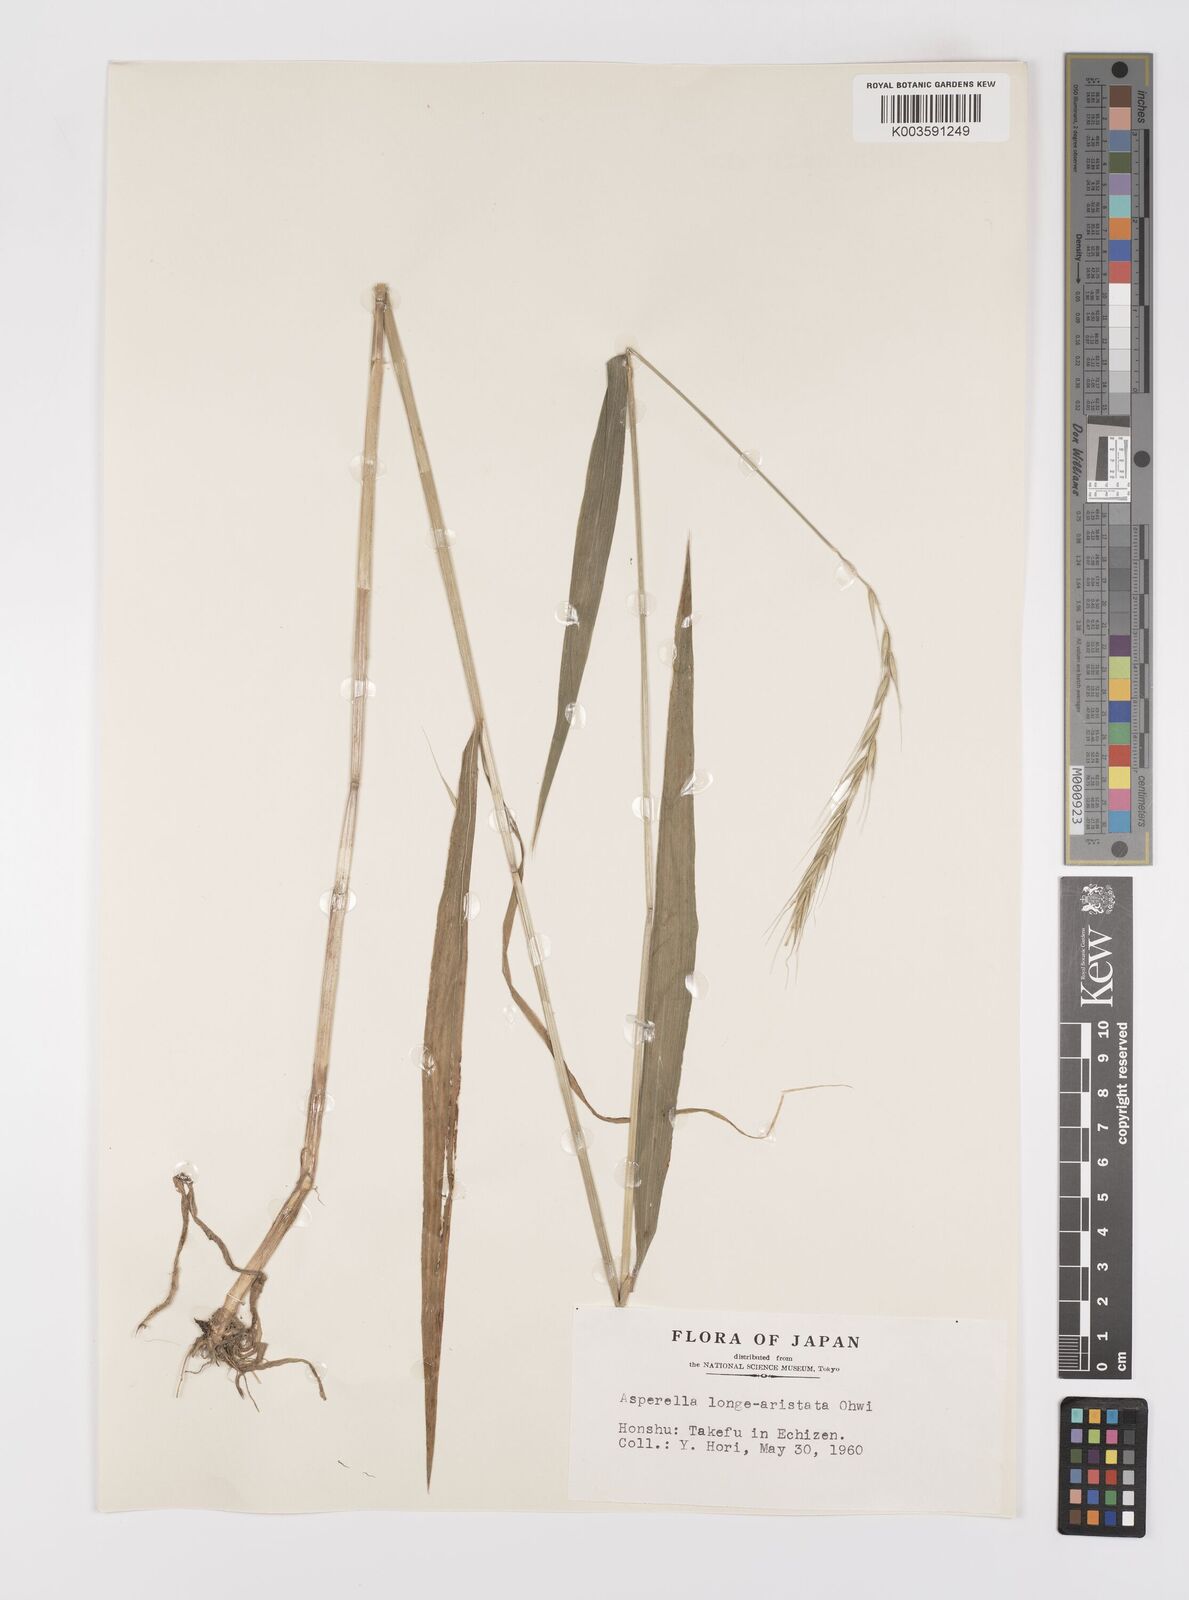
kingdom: Plantae
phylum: Tracheophyta
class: Liliopsida
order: Poales
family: Poaceae
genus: Leymus
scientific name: Leymus duthiei
